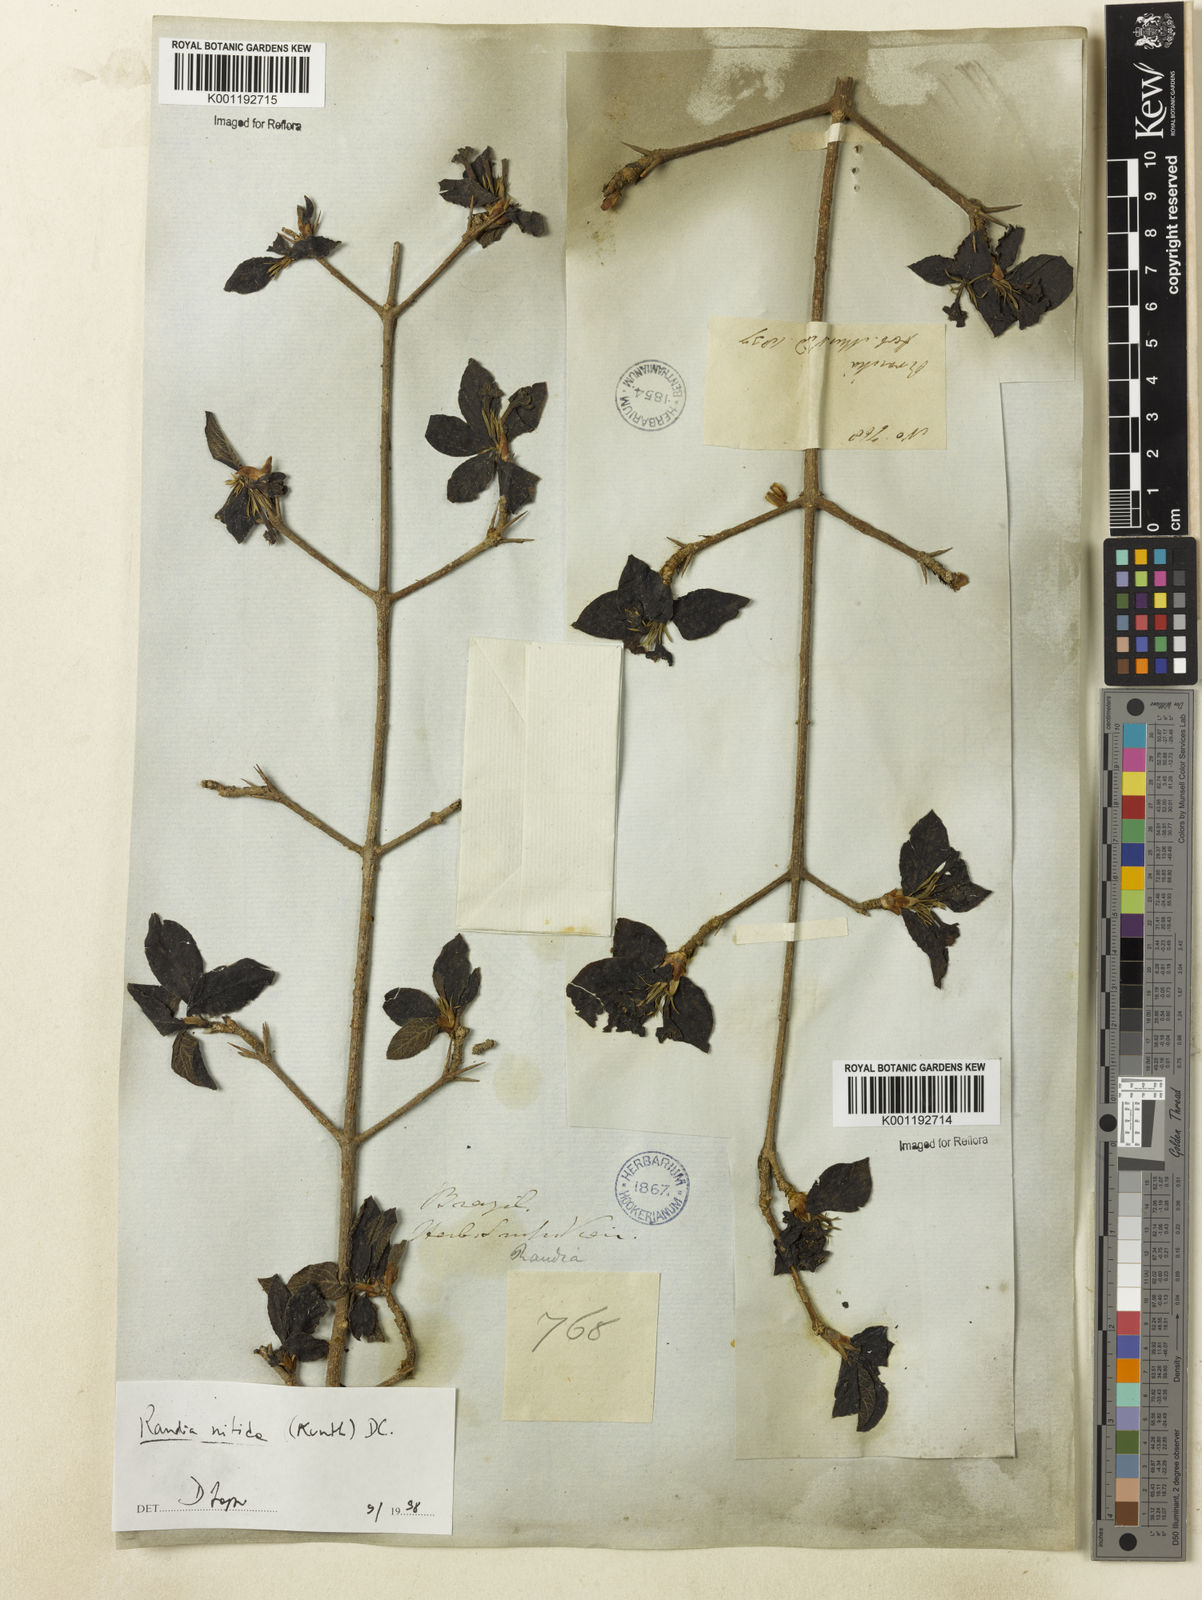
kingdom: Plantae
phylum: Tracheophyta
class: Magnoliopsida
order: Gentianales
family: Rubiaceae
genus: Randia
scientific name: Randia nitida
